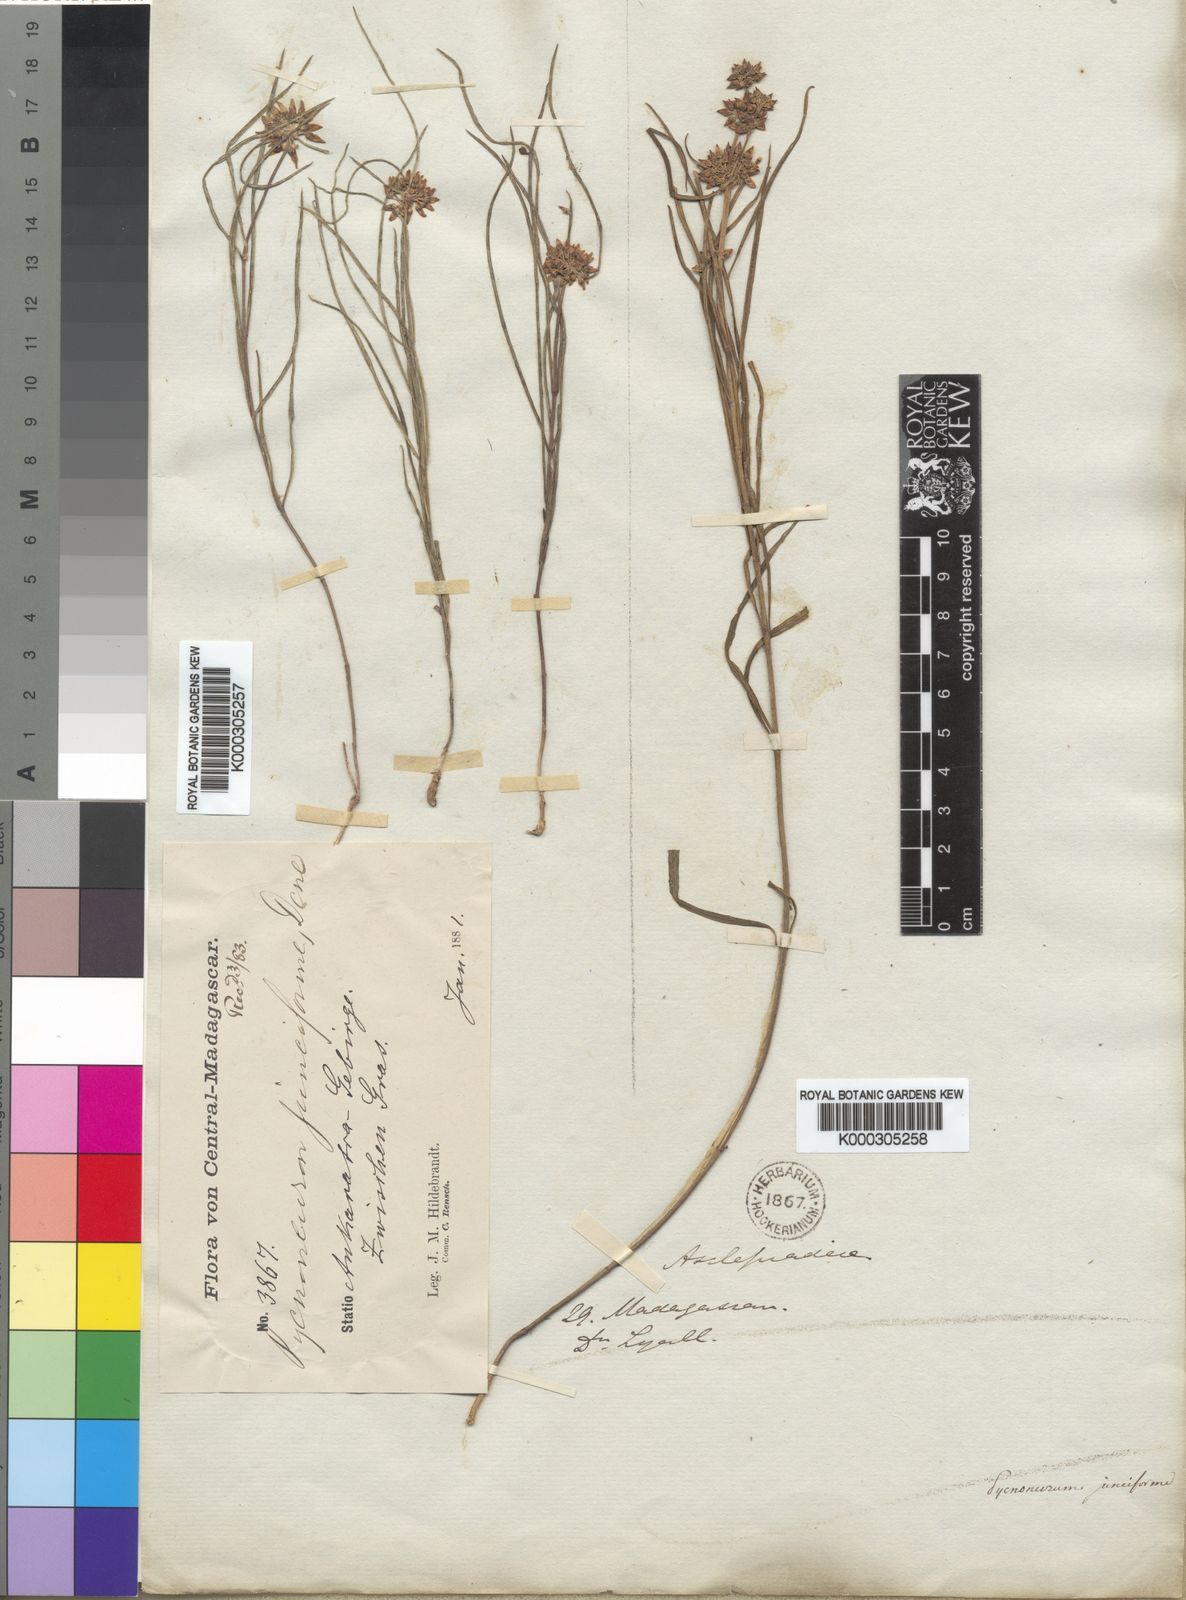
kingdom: Plantae
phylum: Tracheophyta
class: Magnoliopsida
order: Gentianales
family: Apocynaceae
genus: Cynanchum
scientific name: Cynanchum junciforme
